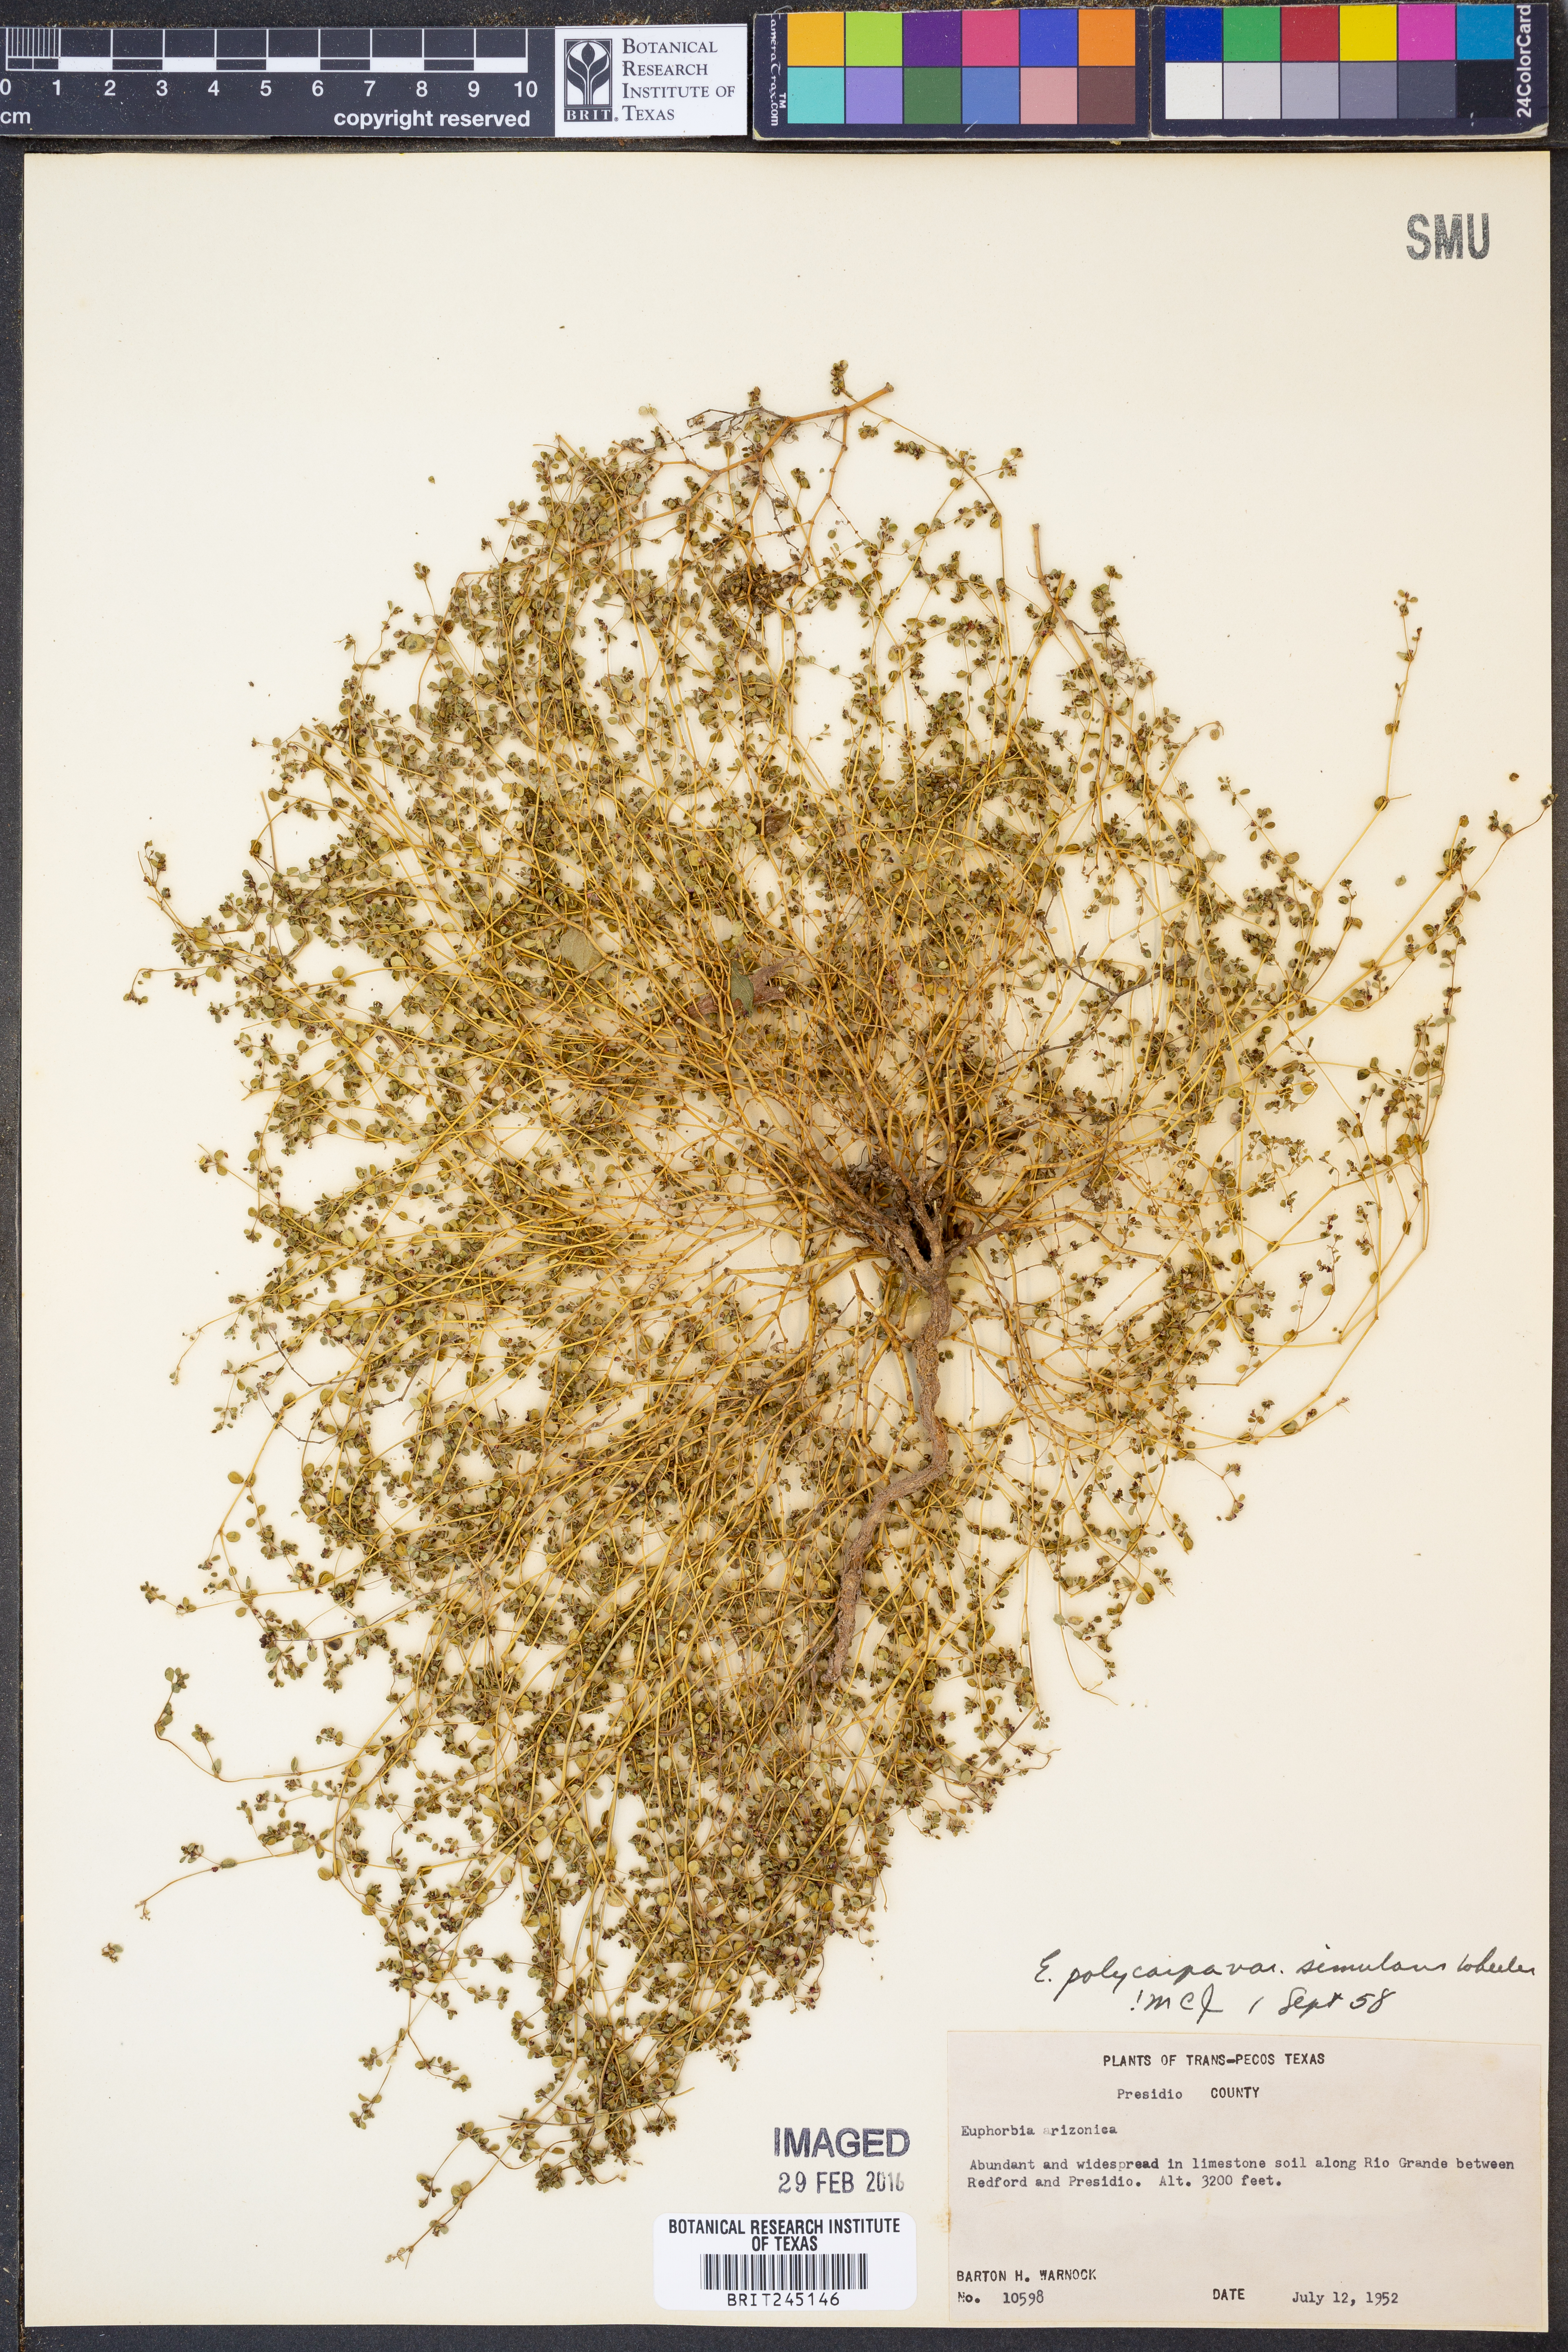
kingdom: Plantae
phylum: Tracheophyta
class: Magnoliopsida
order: Malpighiales
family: Euphorbiaceae
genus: Euphorbia
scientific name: Euphorbia simulans
